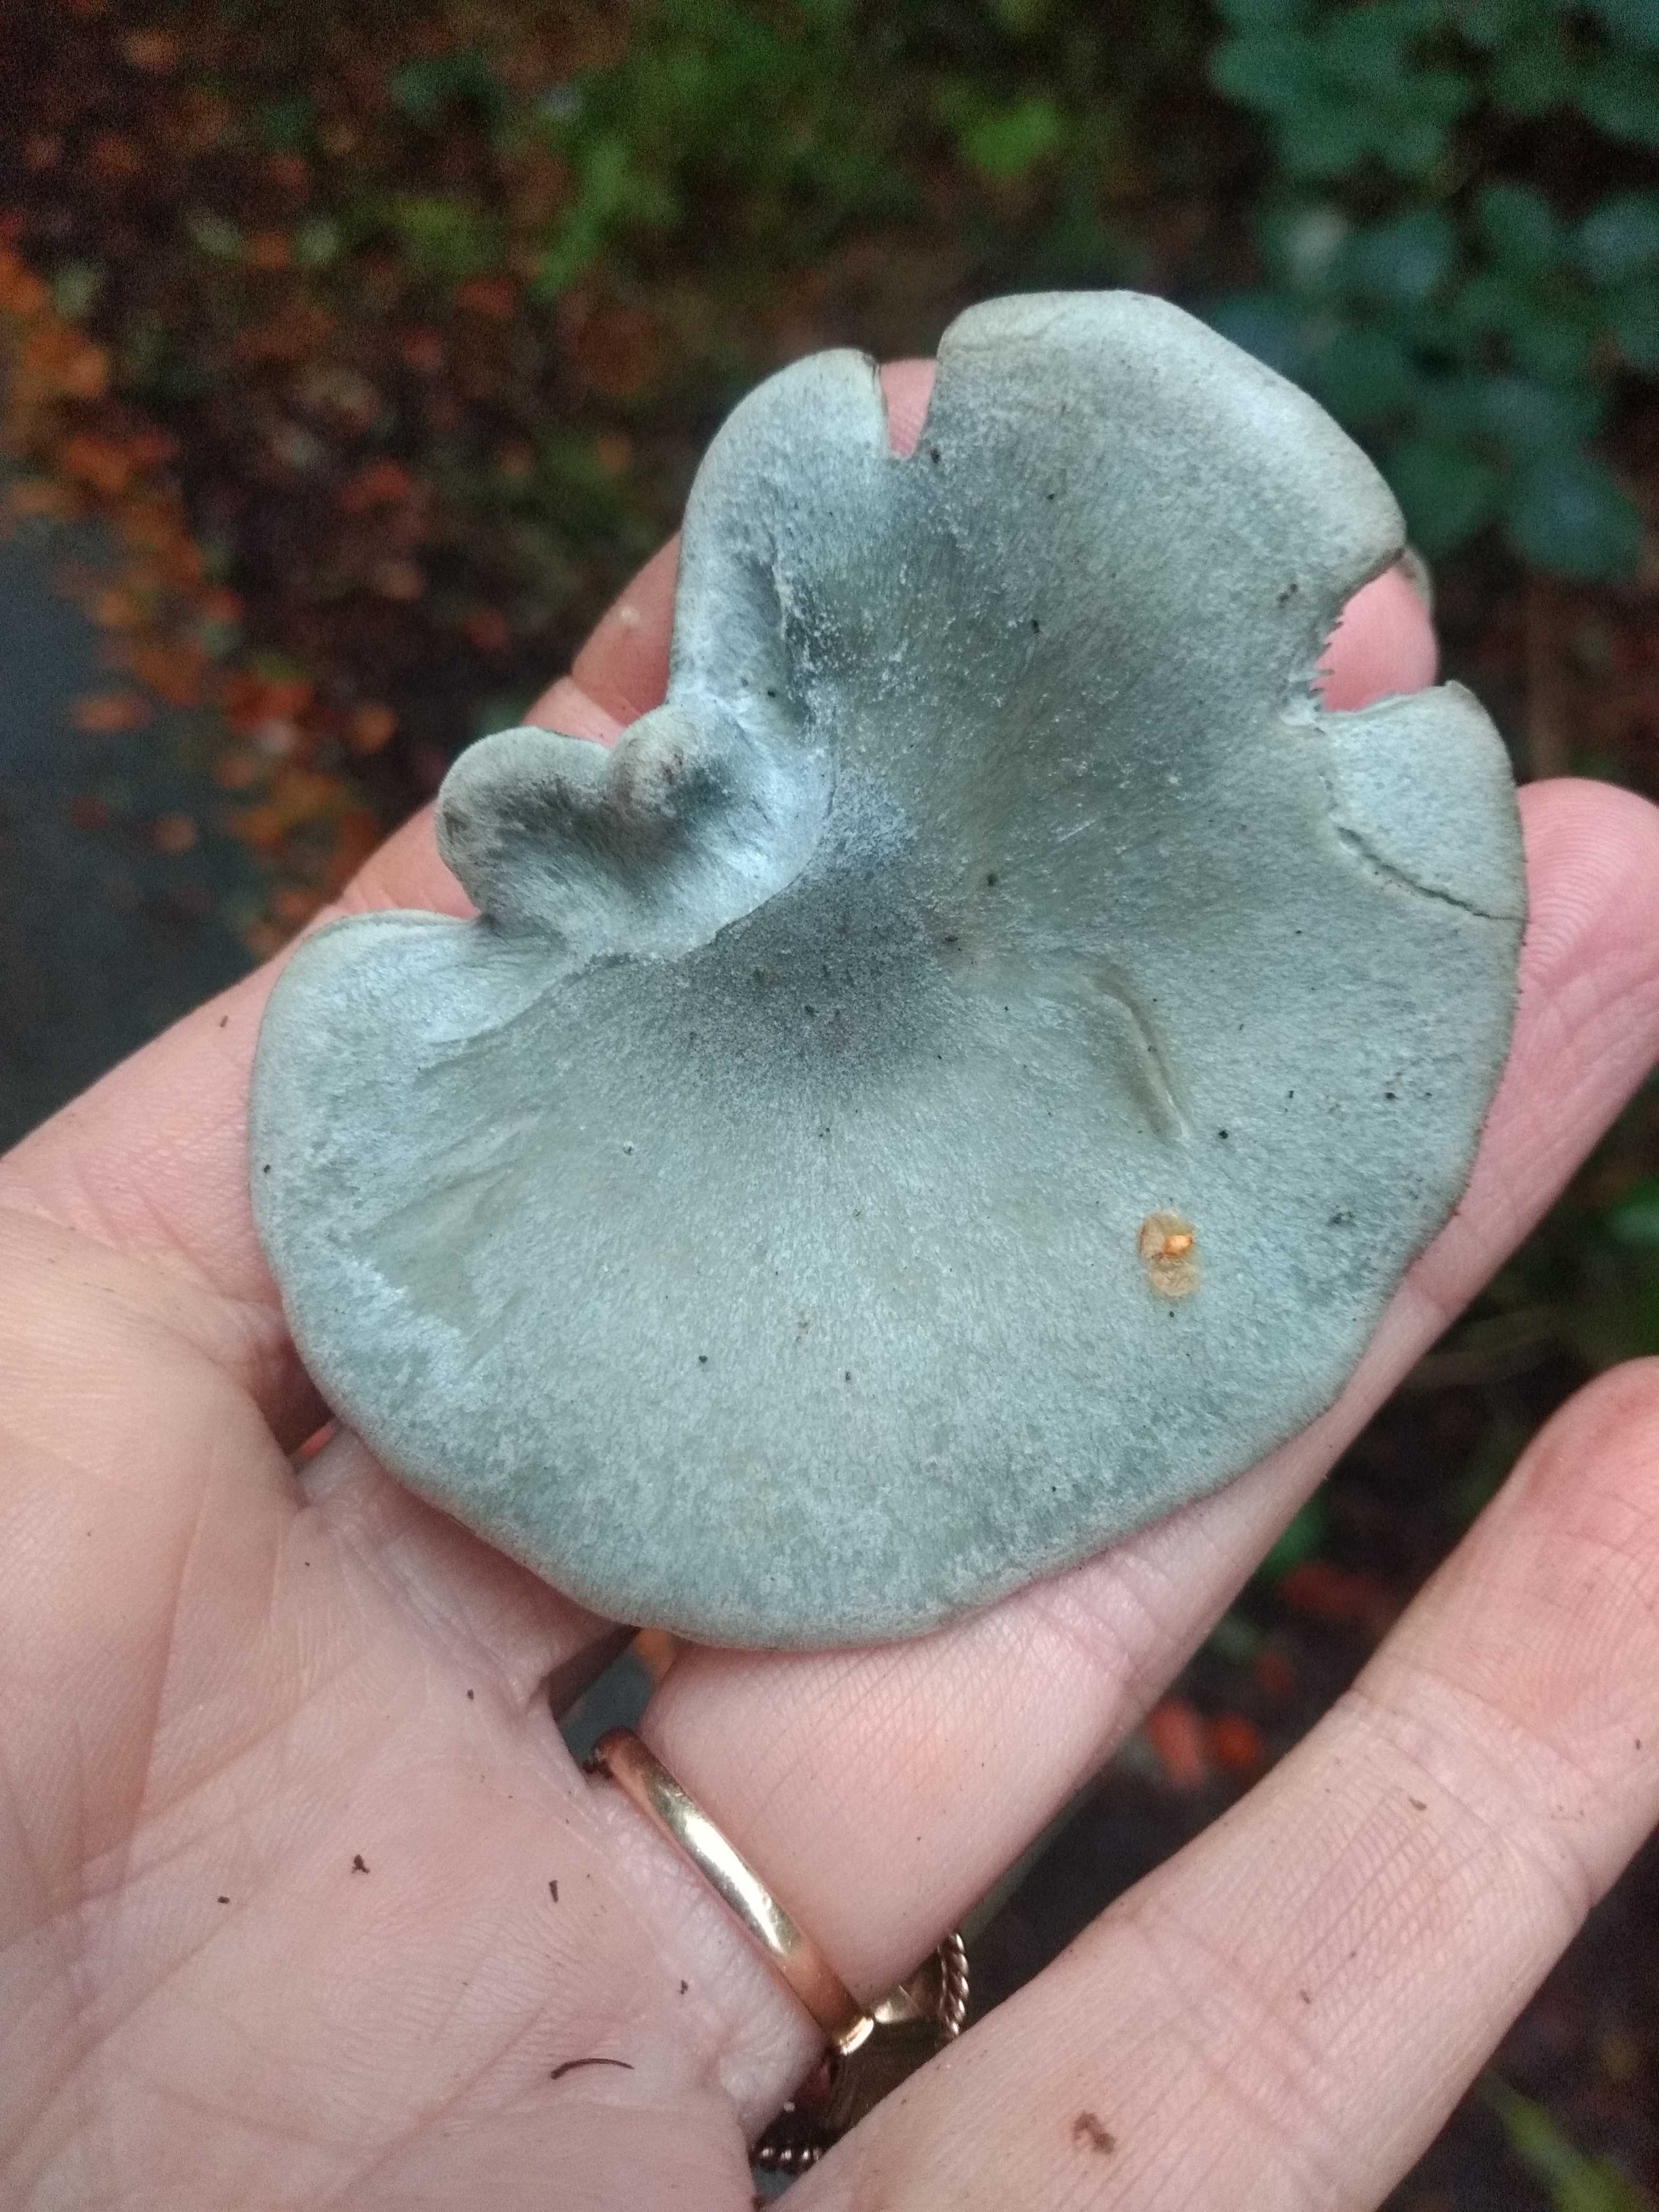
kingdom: Fungi
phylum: Basidiomycota
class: Agaricomycetes
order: Agaricales
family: Tricholomataceae
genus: Clitocybe
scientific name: Clitocybe odora
